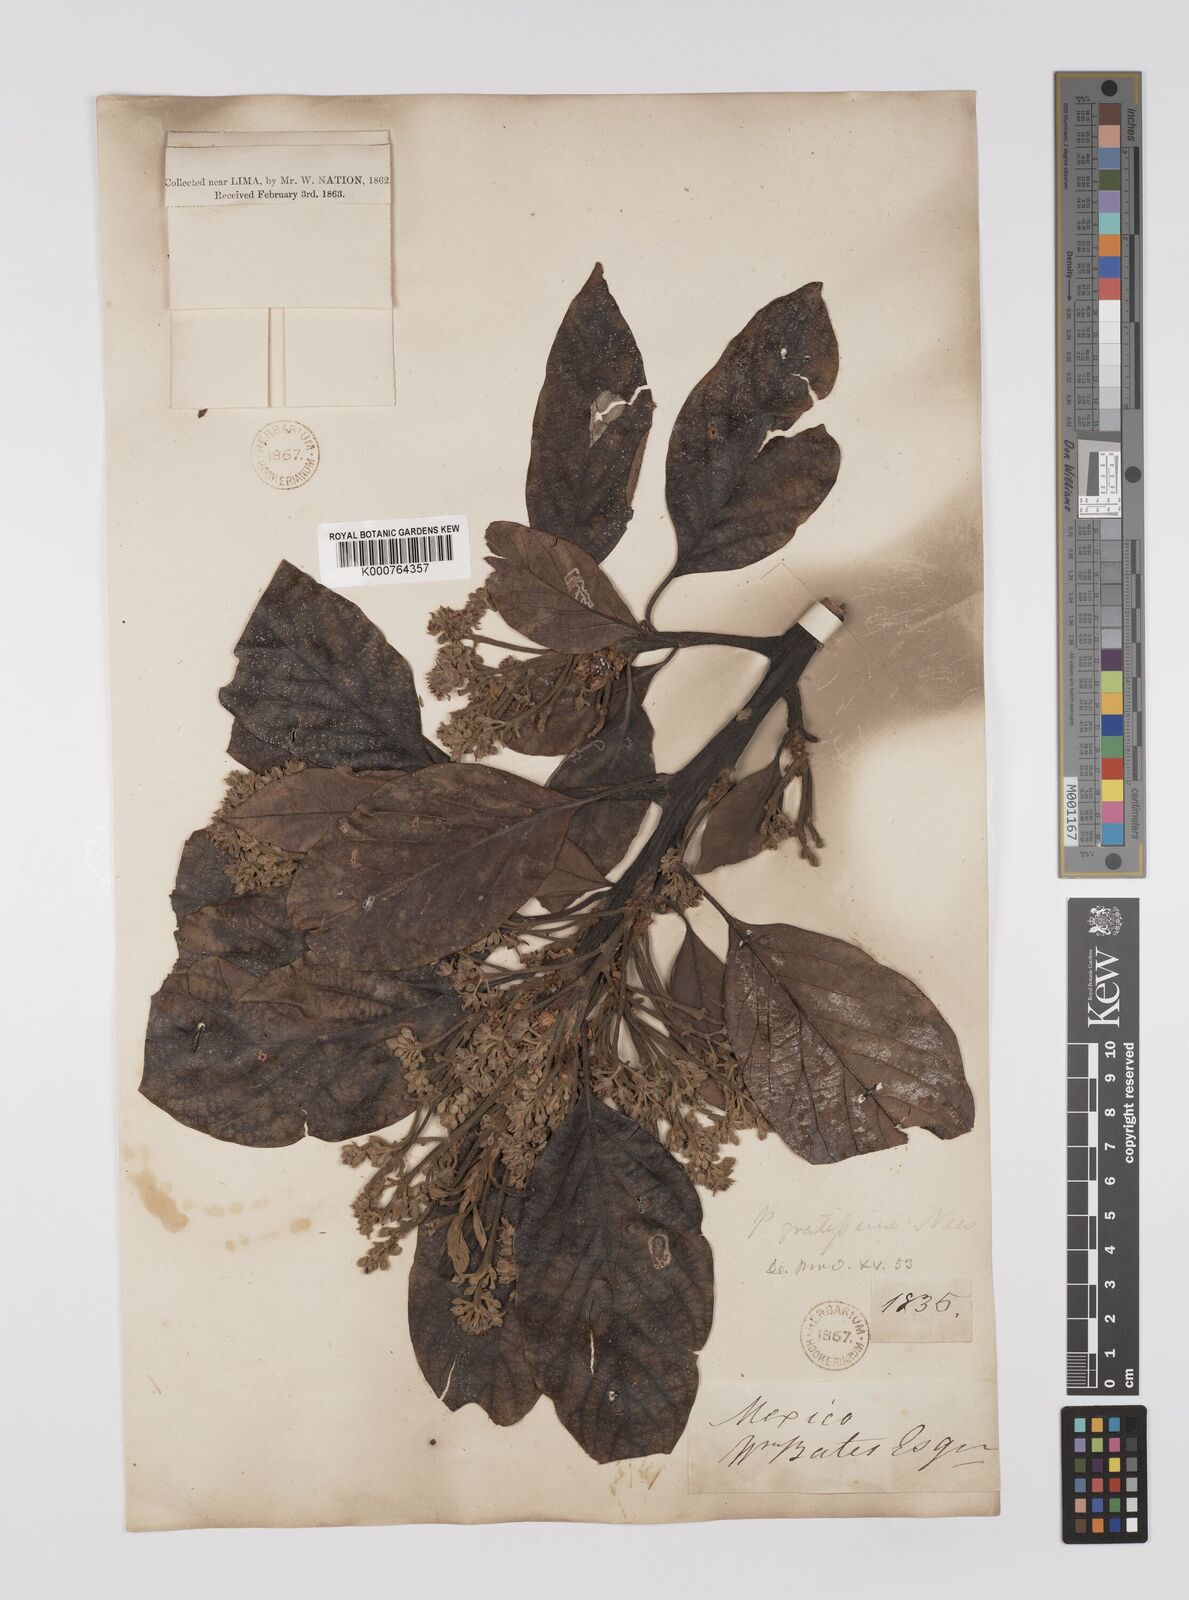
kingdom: Plantae
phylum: Tracheophyta
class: Magnoliopsida
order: Laurales
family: Lauraceae
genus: Persea
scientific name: Persea americana
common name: Avocado
